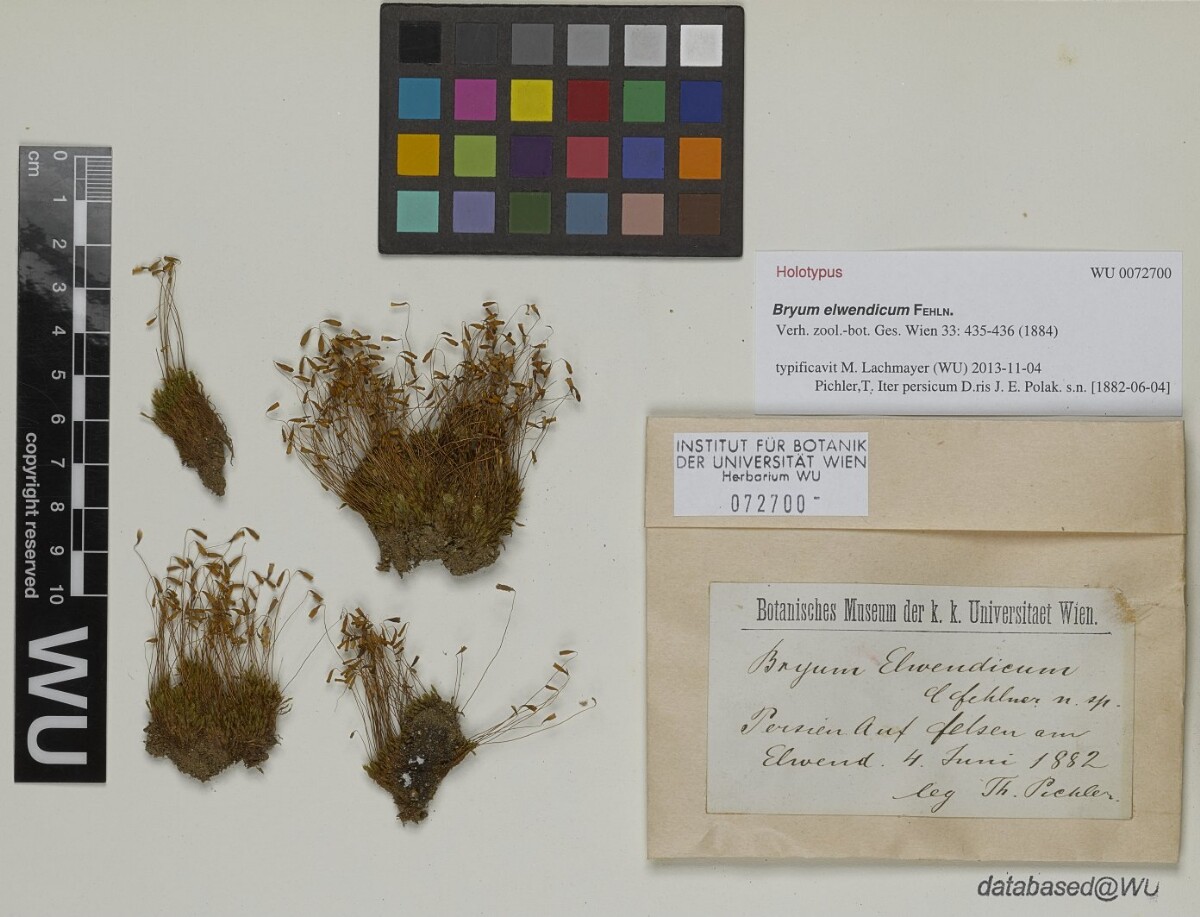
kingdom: Plantae
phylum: Bryophyta
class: Bryopsida
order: Bryales
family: Bryaceae
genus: Bryum
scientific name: Bryum elwendicum
